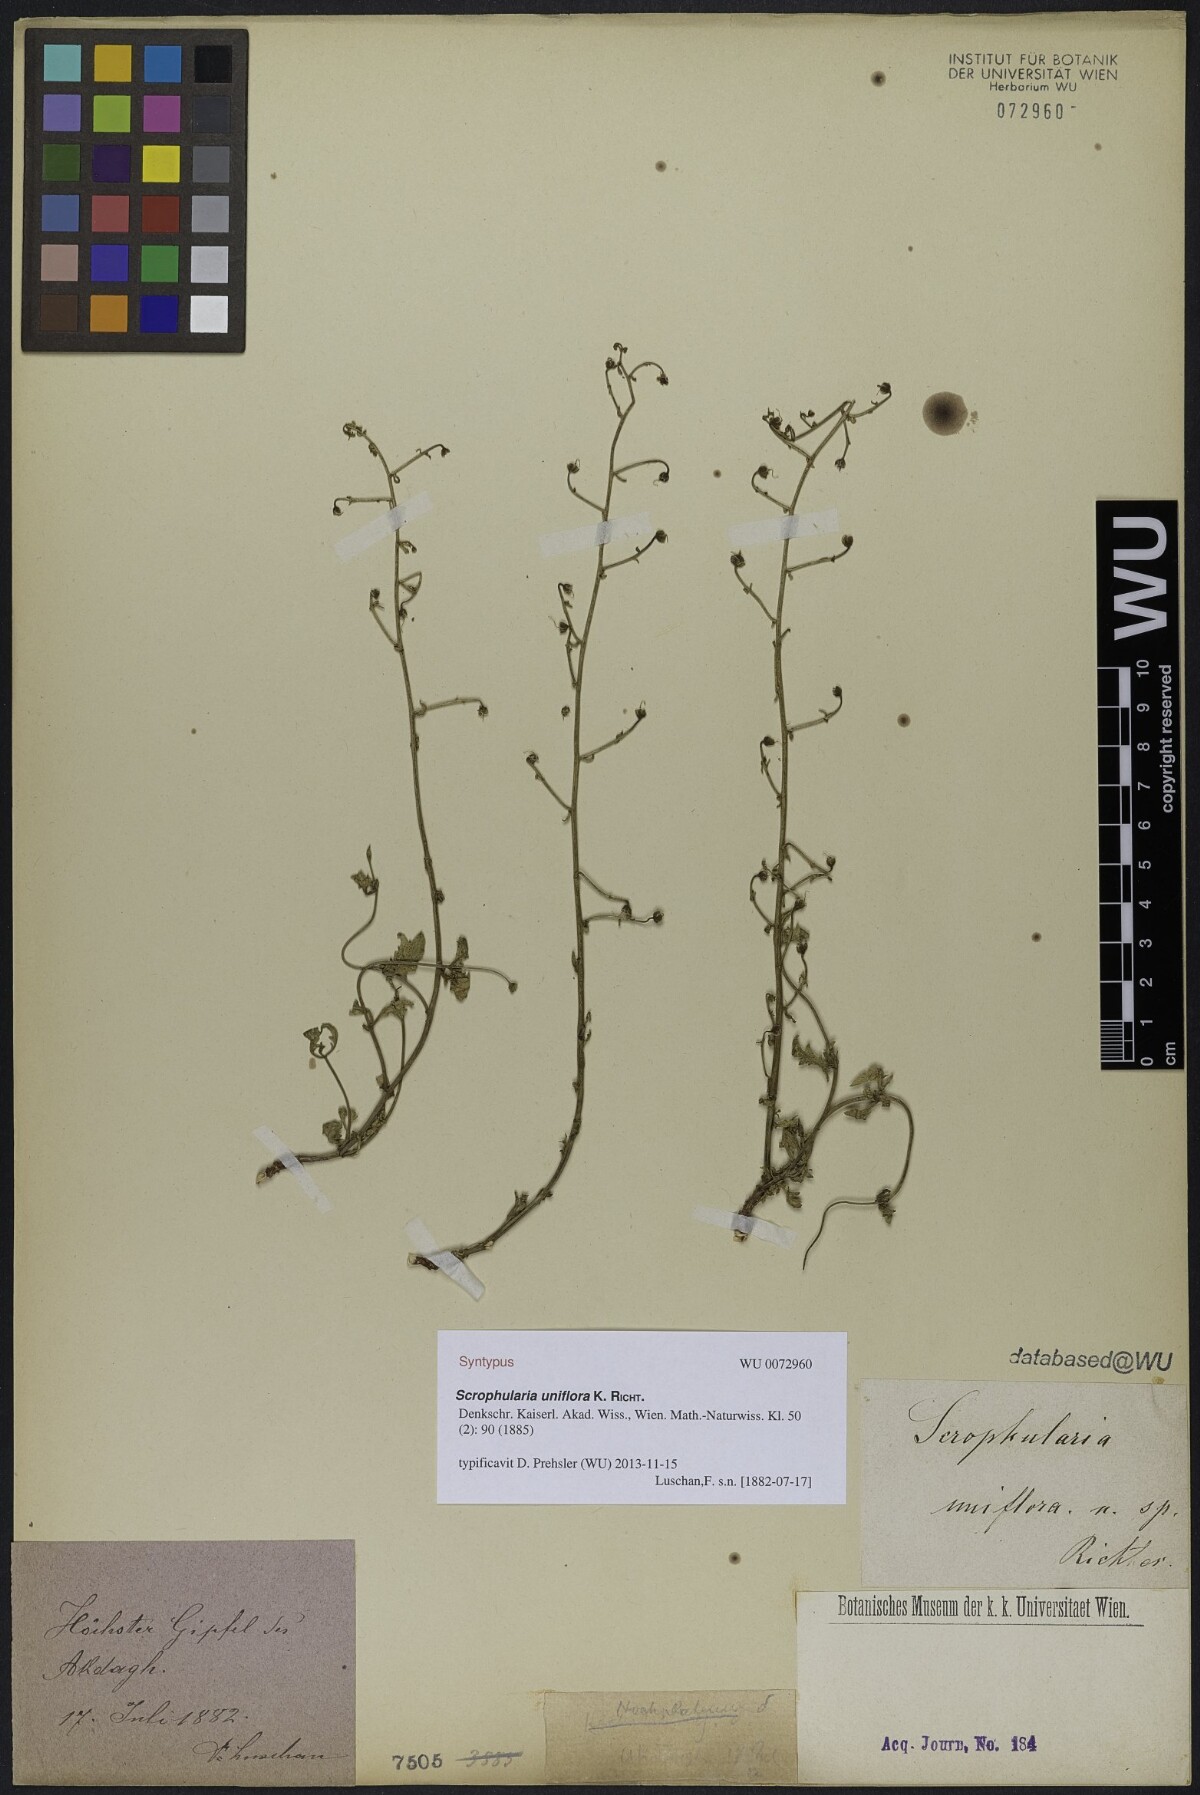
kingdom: Plantae
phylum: Tracheophyta
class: Magnoliopsida
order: Lamiales
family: Scrophulariaceae
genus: Scrophularia
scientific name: Scrophularia uniflora
